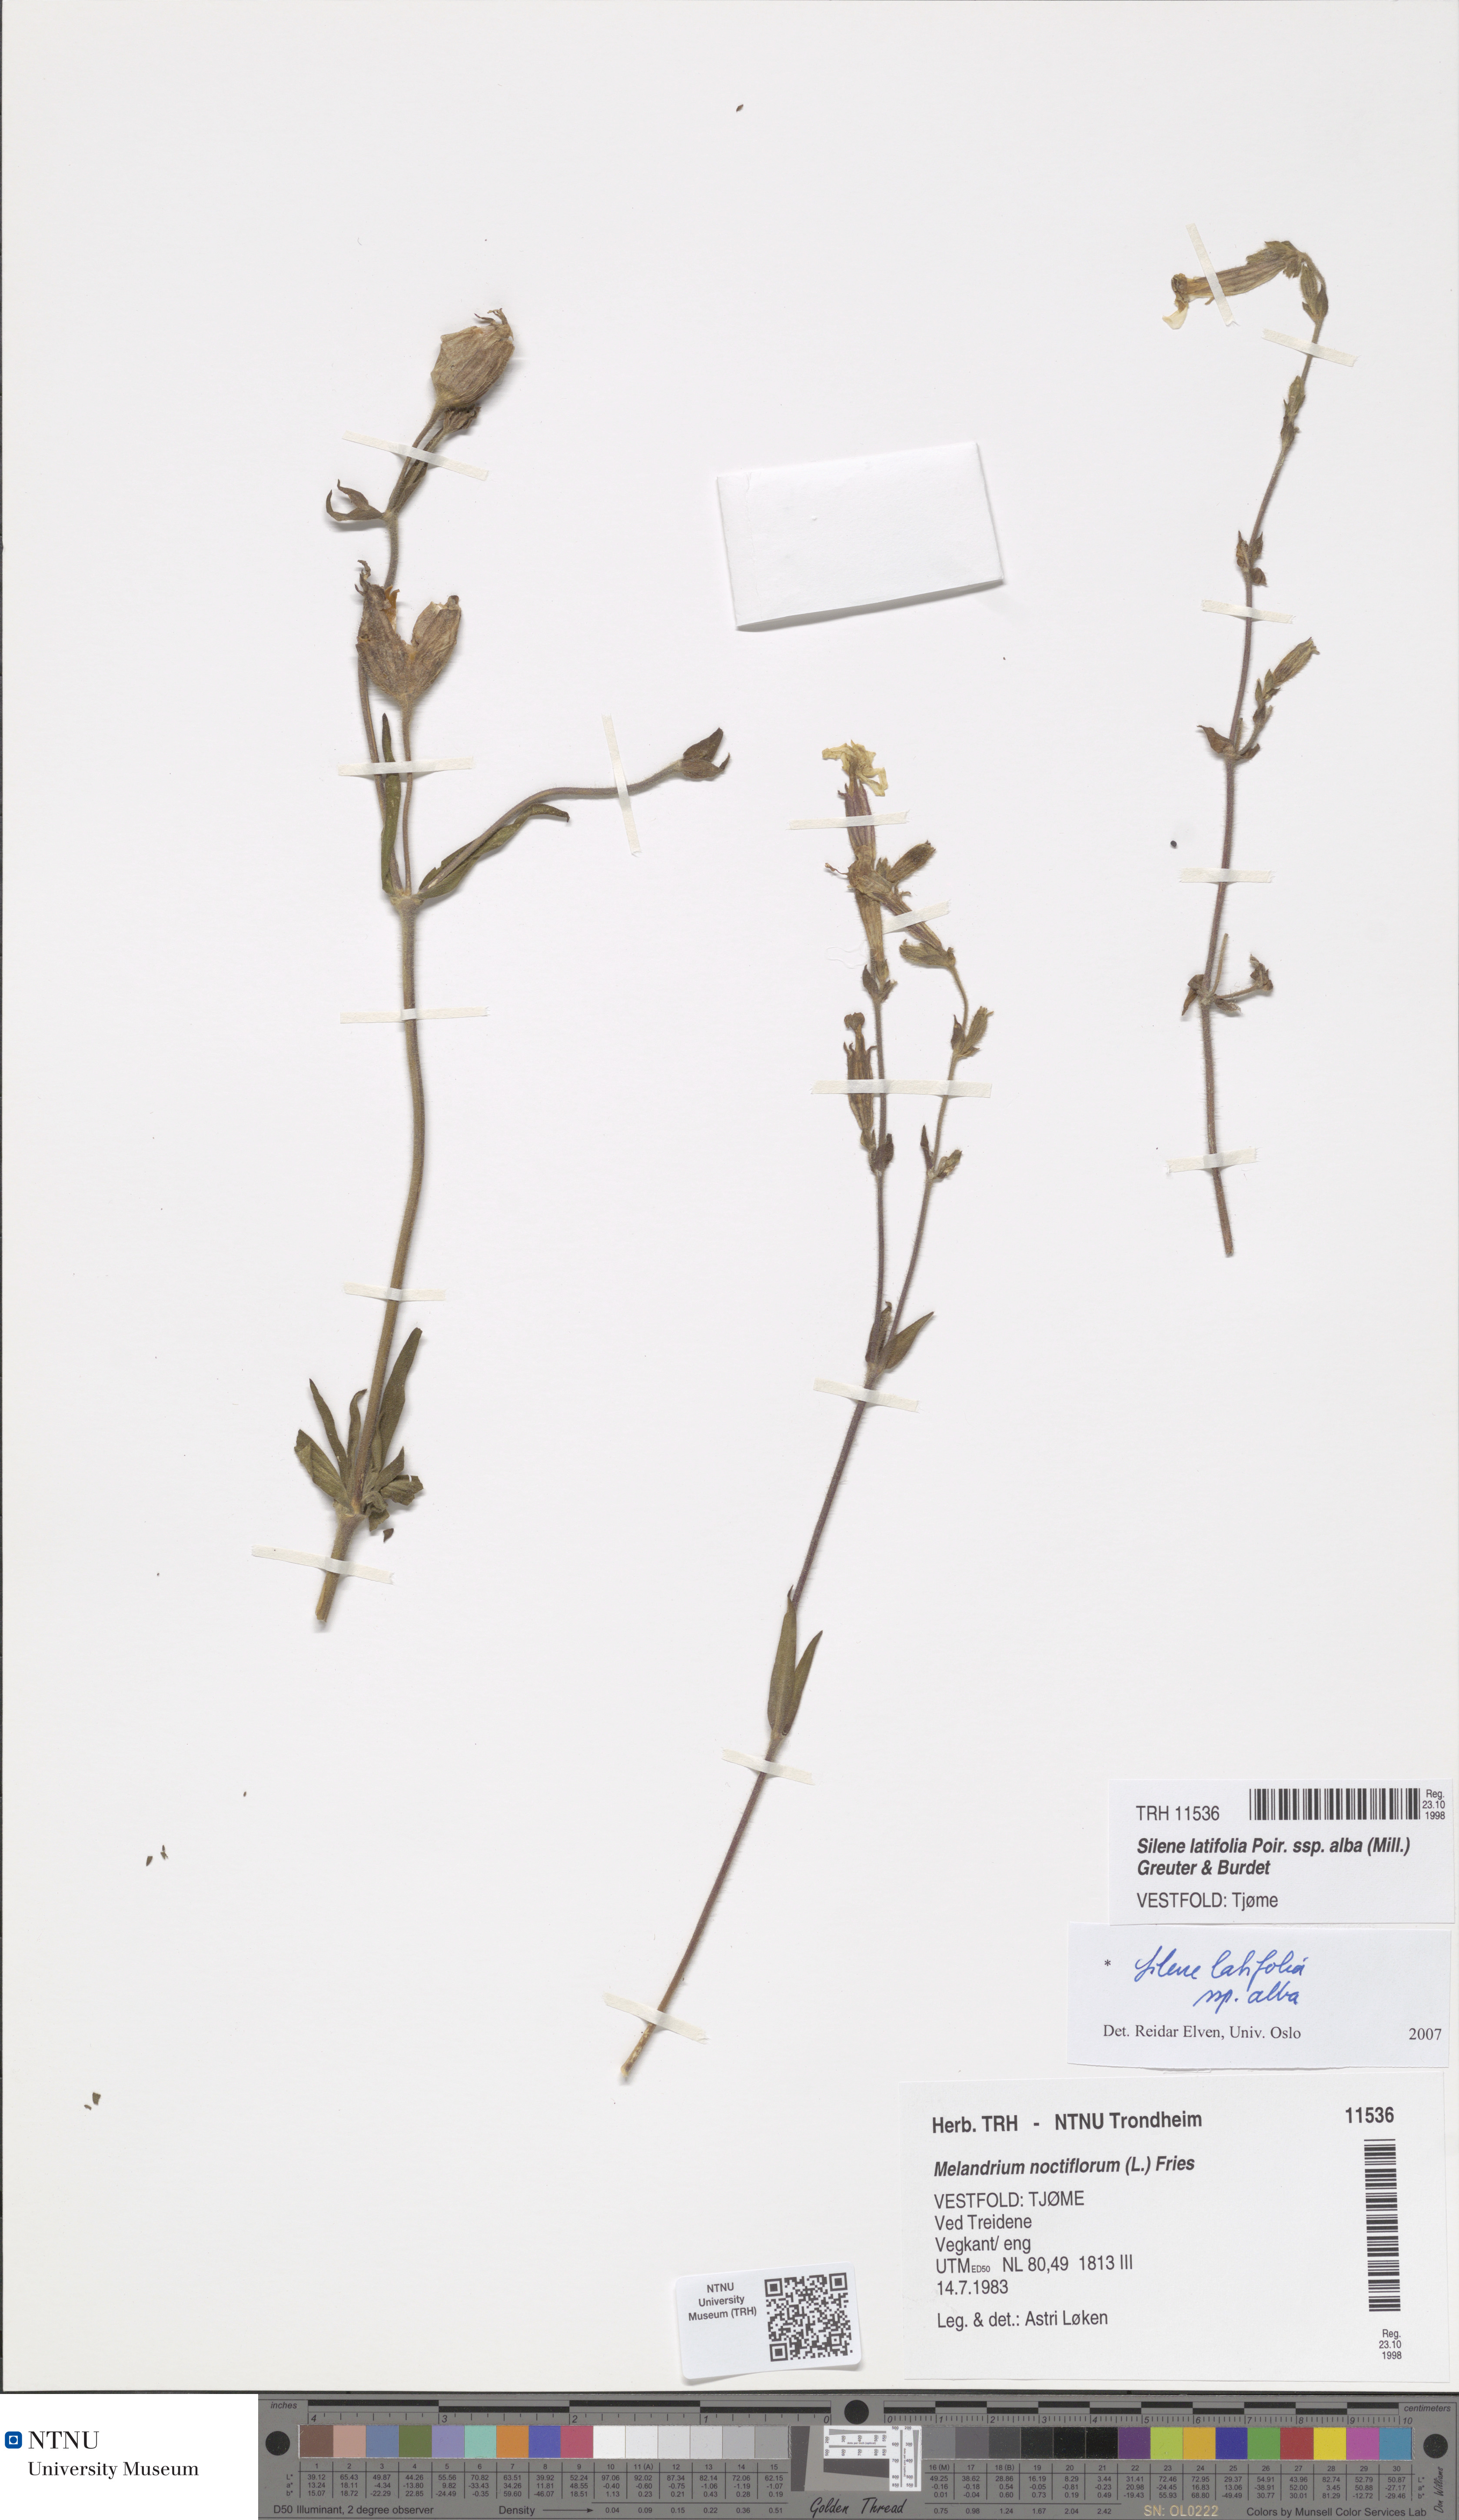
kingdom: Plantae
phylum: Tracheophyta
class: Magnoliopsida
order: Caryophyllales
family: Caryophyllaceae
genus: Silene
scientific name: Silene latifolia
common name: White campion
